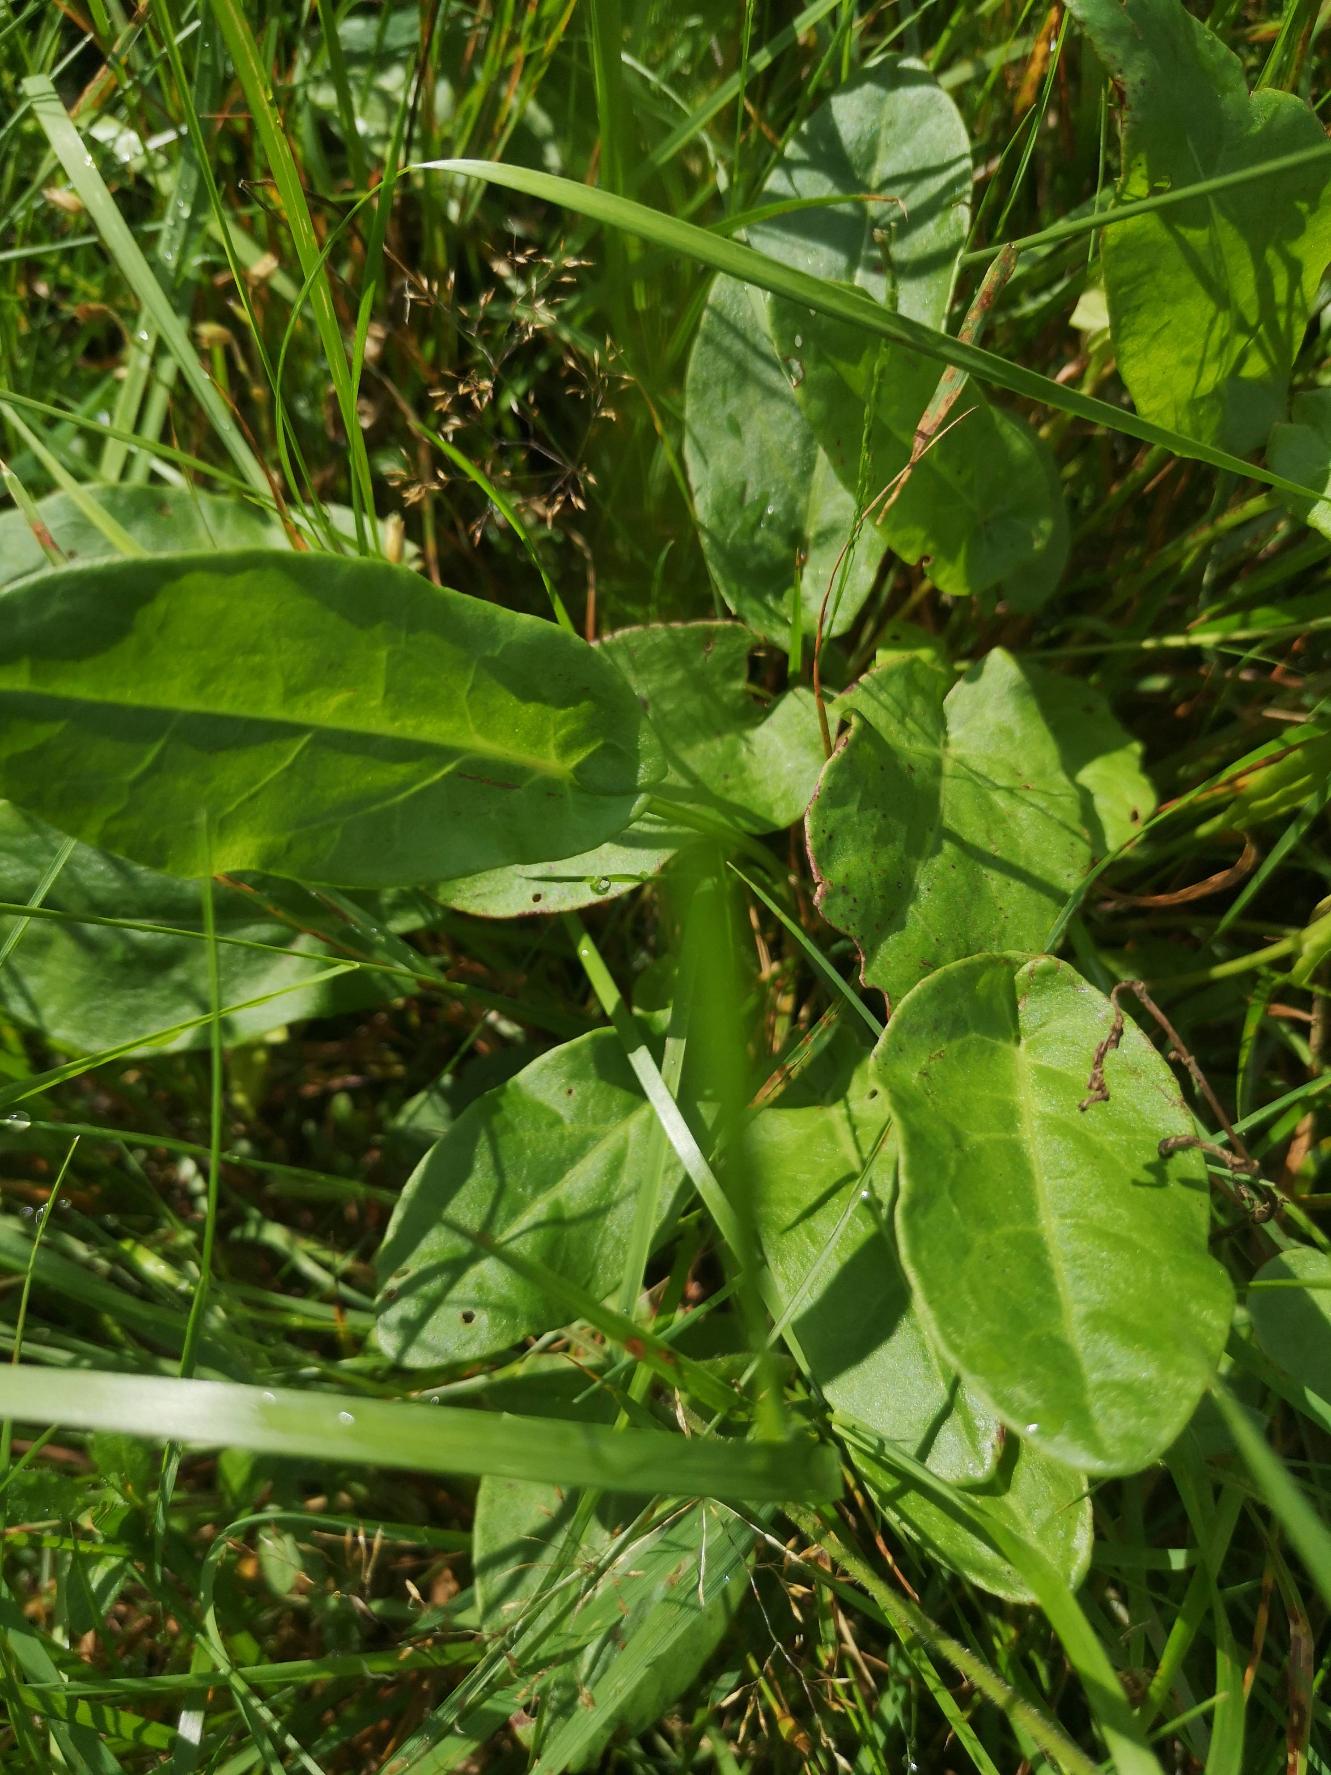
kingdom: Plantae
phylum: Tracheophyta
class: Magnoliopsida
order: Caryophyllales
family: Polygonaceae
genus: Rumex
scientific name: Rumex acetosa
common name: Almindelig syre
